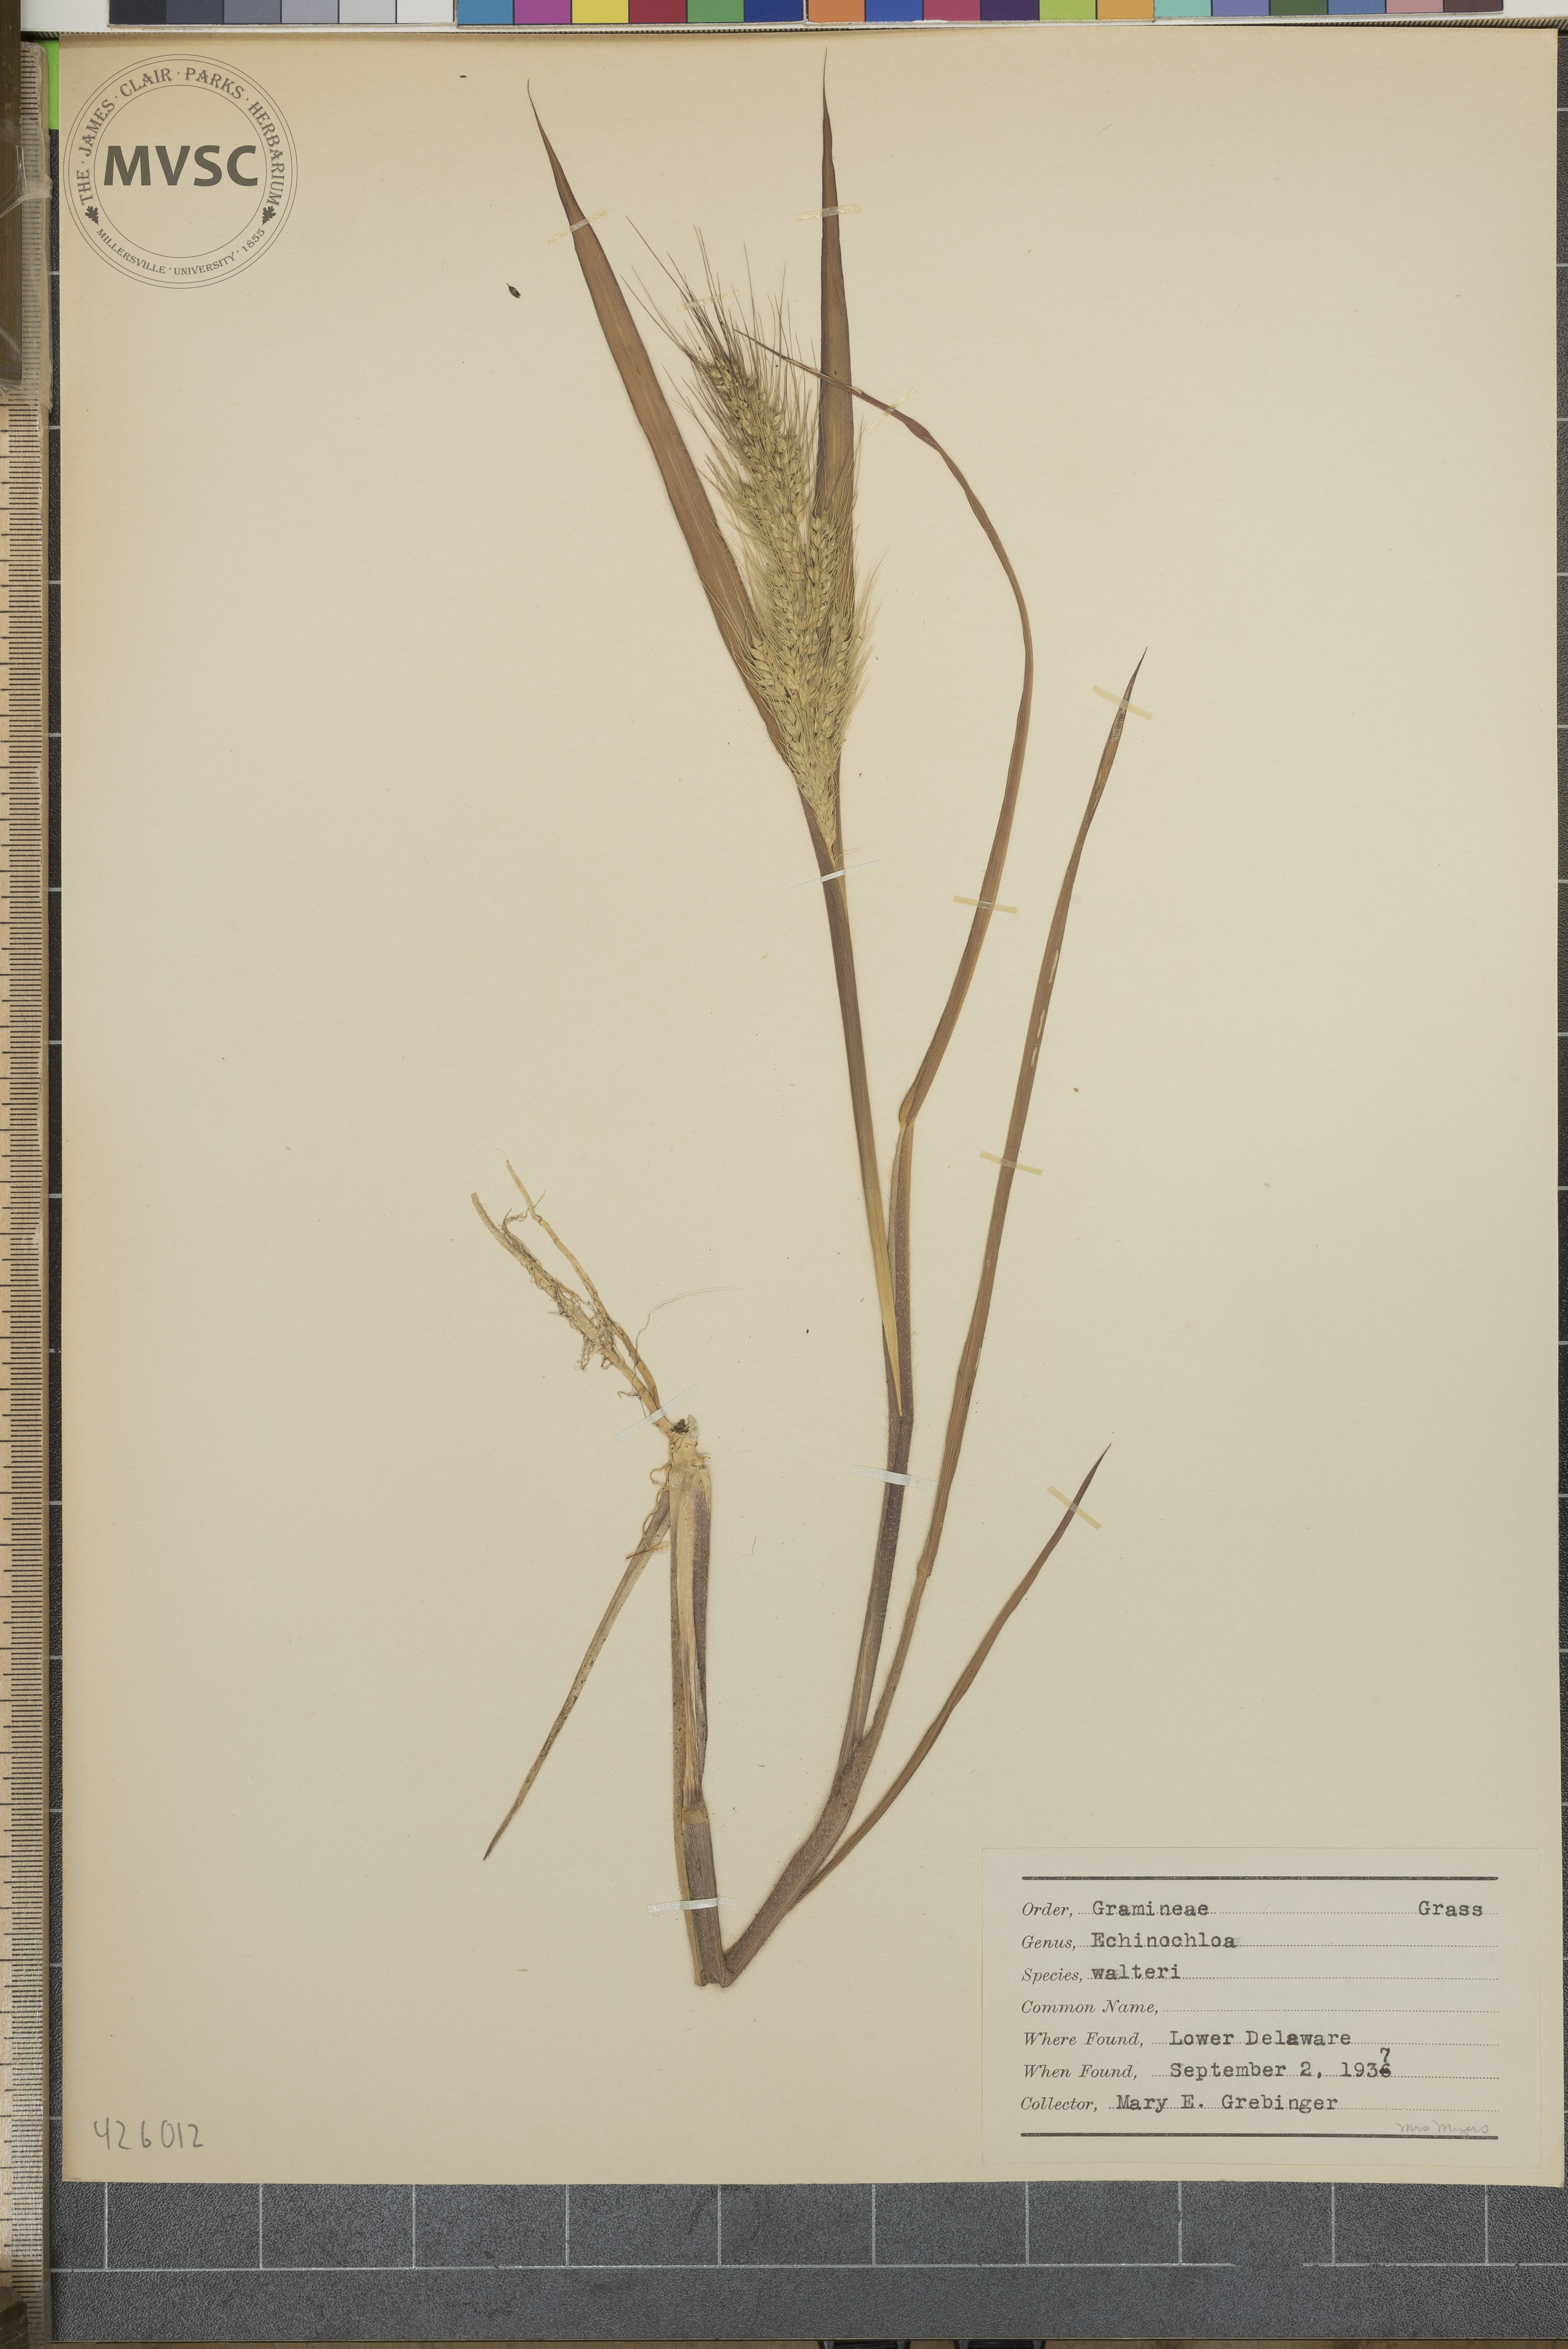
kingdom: Plantae
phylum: Tracheophyta
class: Liliopsida
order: Poales
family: Poaceae
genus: Echinochloa
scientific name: Echinochloa walteri
